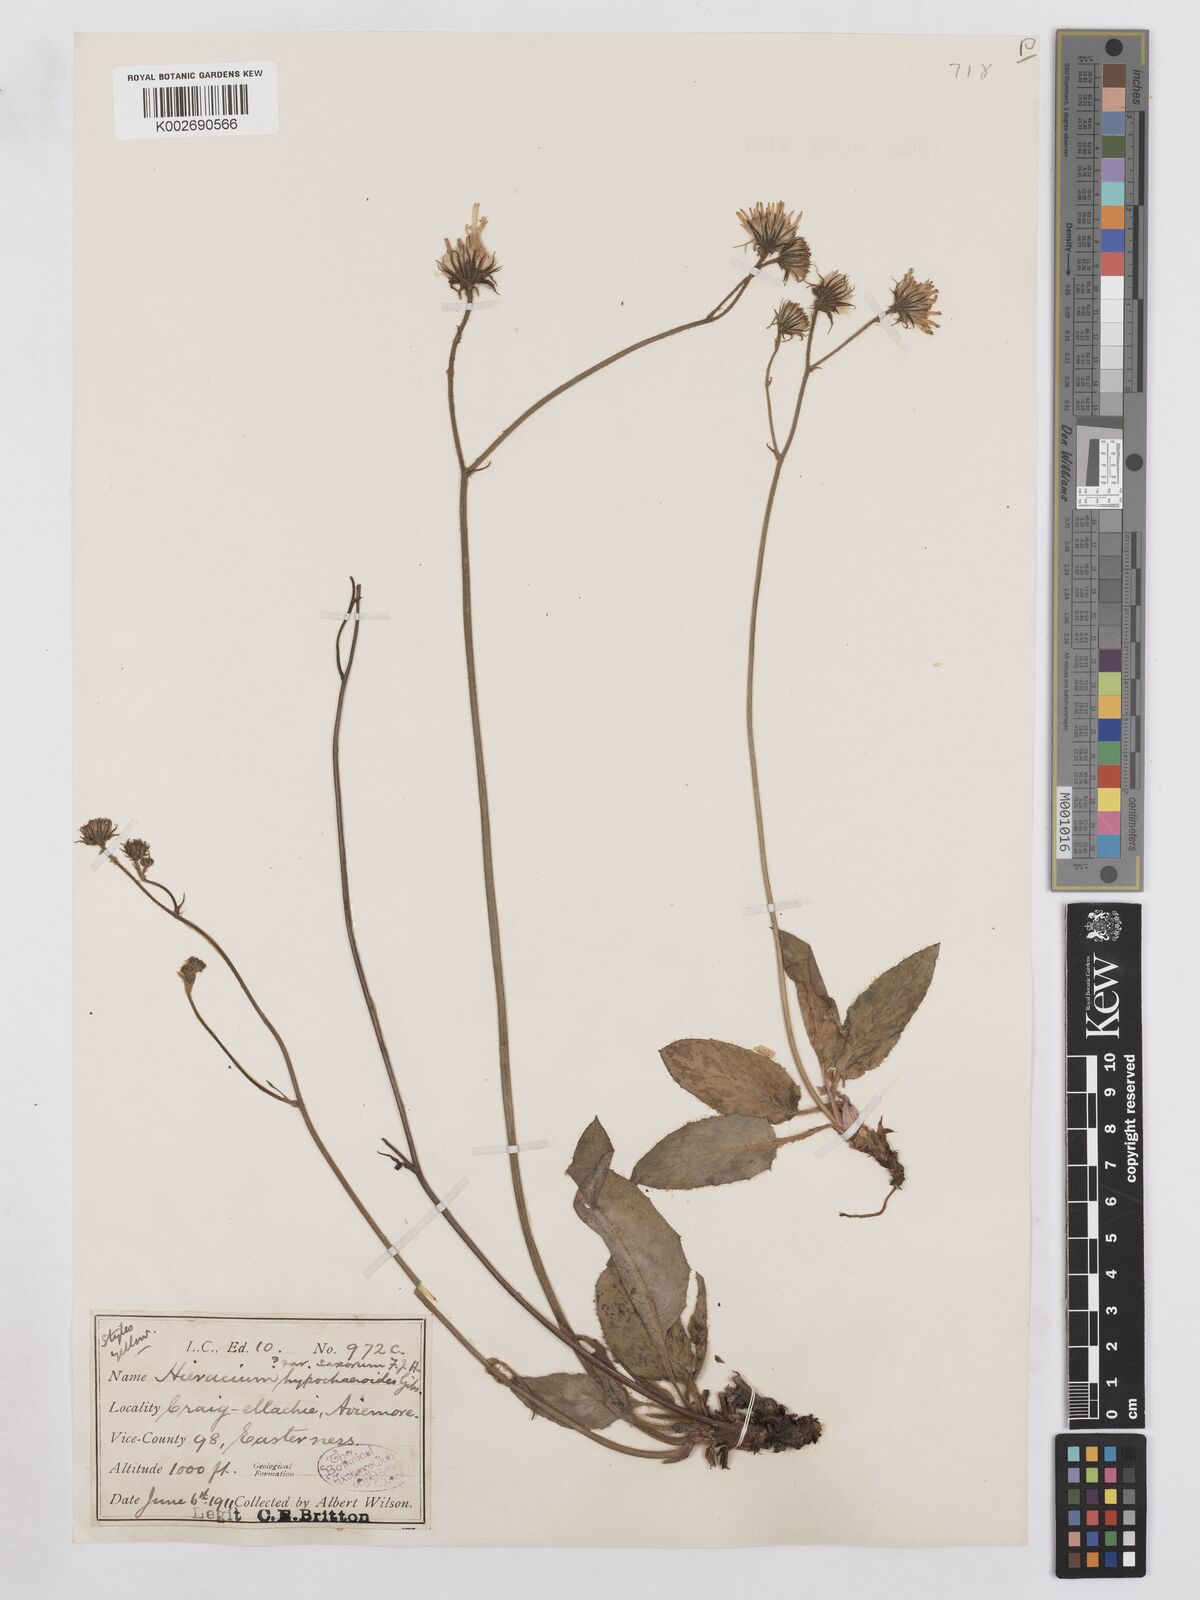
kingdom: Plantae
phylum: Tracheophyta
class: Magnoliopsida
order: Asterales
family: Asteraceae
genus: Hieracium
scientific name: Hieracium saxorum
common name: Rock hawkweed
